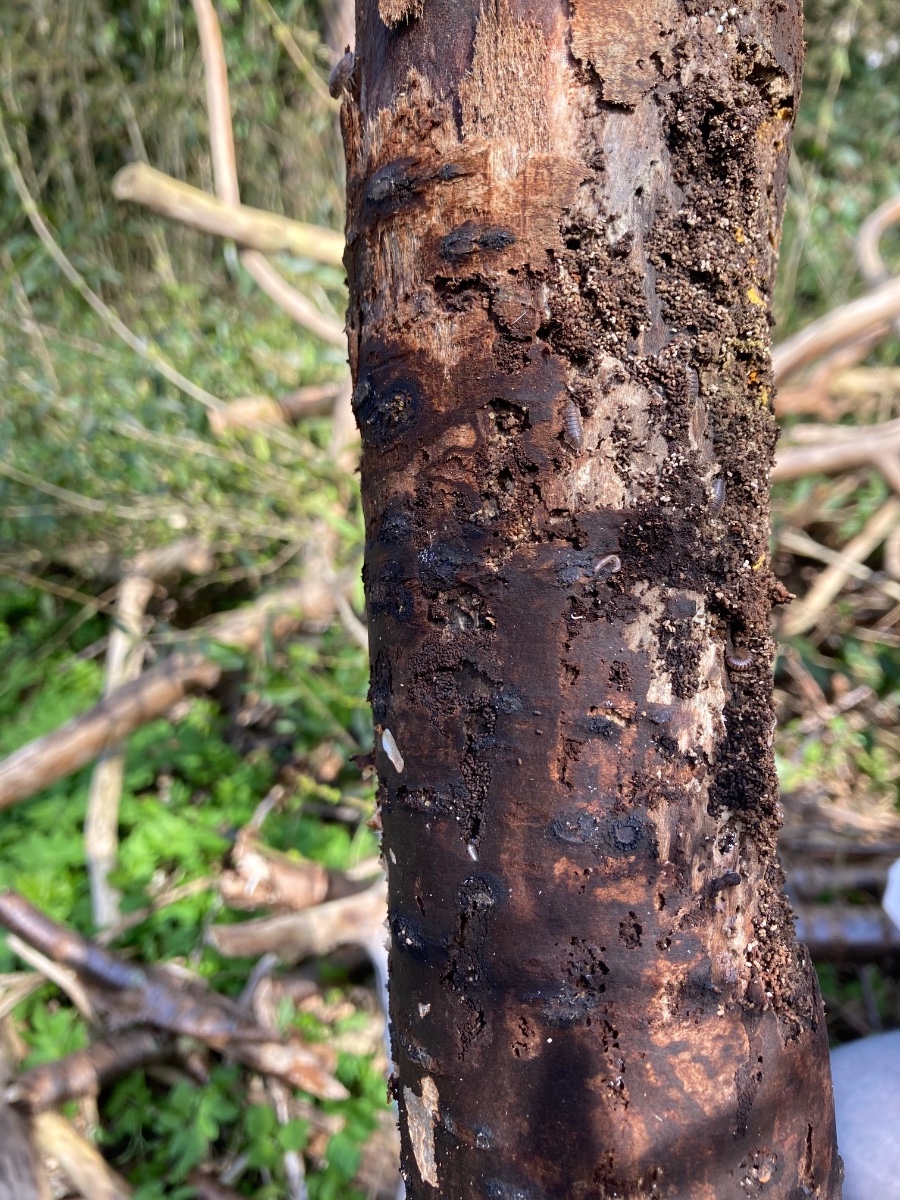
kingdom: Fungi
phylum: Ascomycota
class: Sordariomycetes
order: Calosphaeriales
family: Calosphaeriaceae
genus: Calosphaeria
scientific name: Calosphaeria pulchella
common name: smuk slyngkerne
